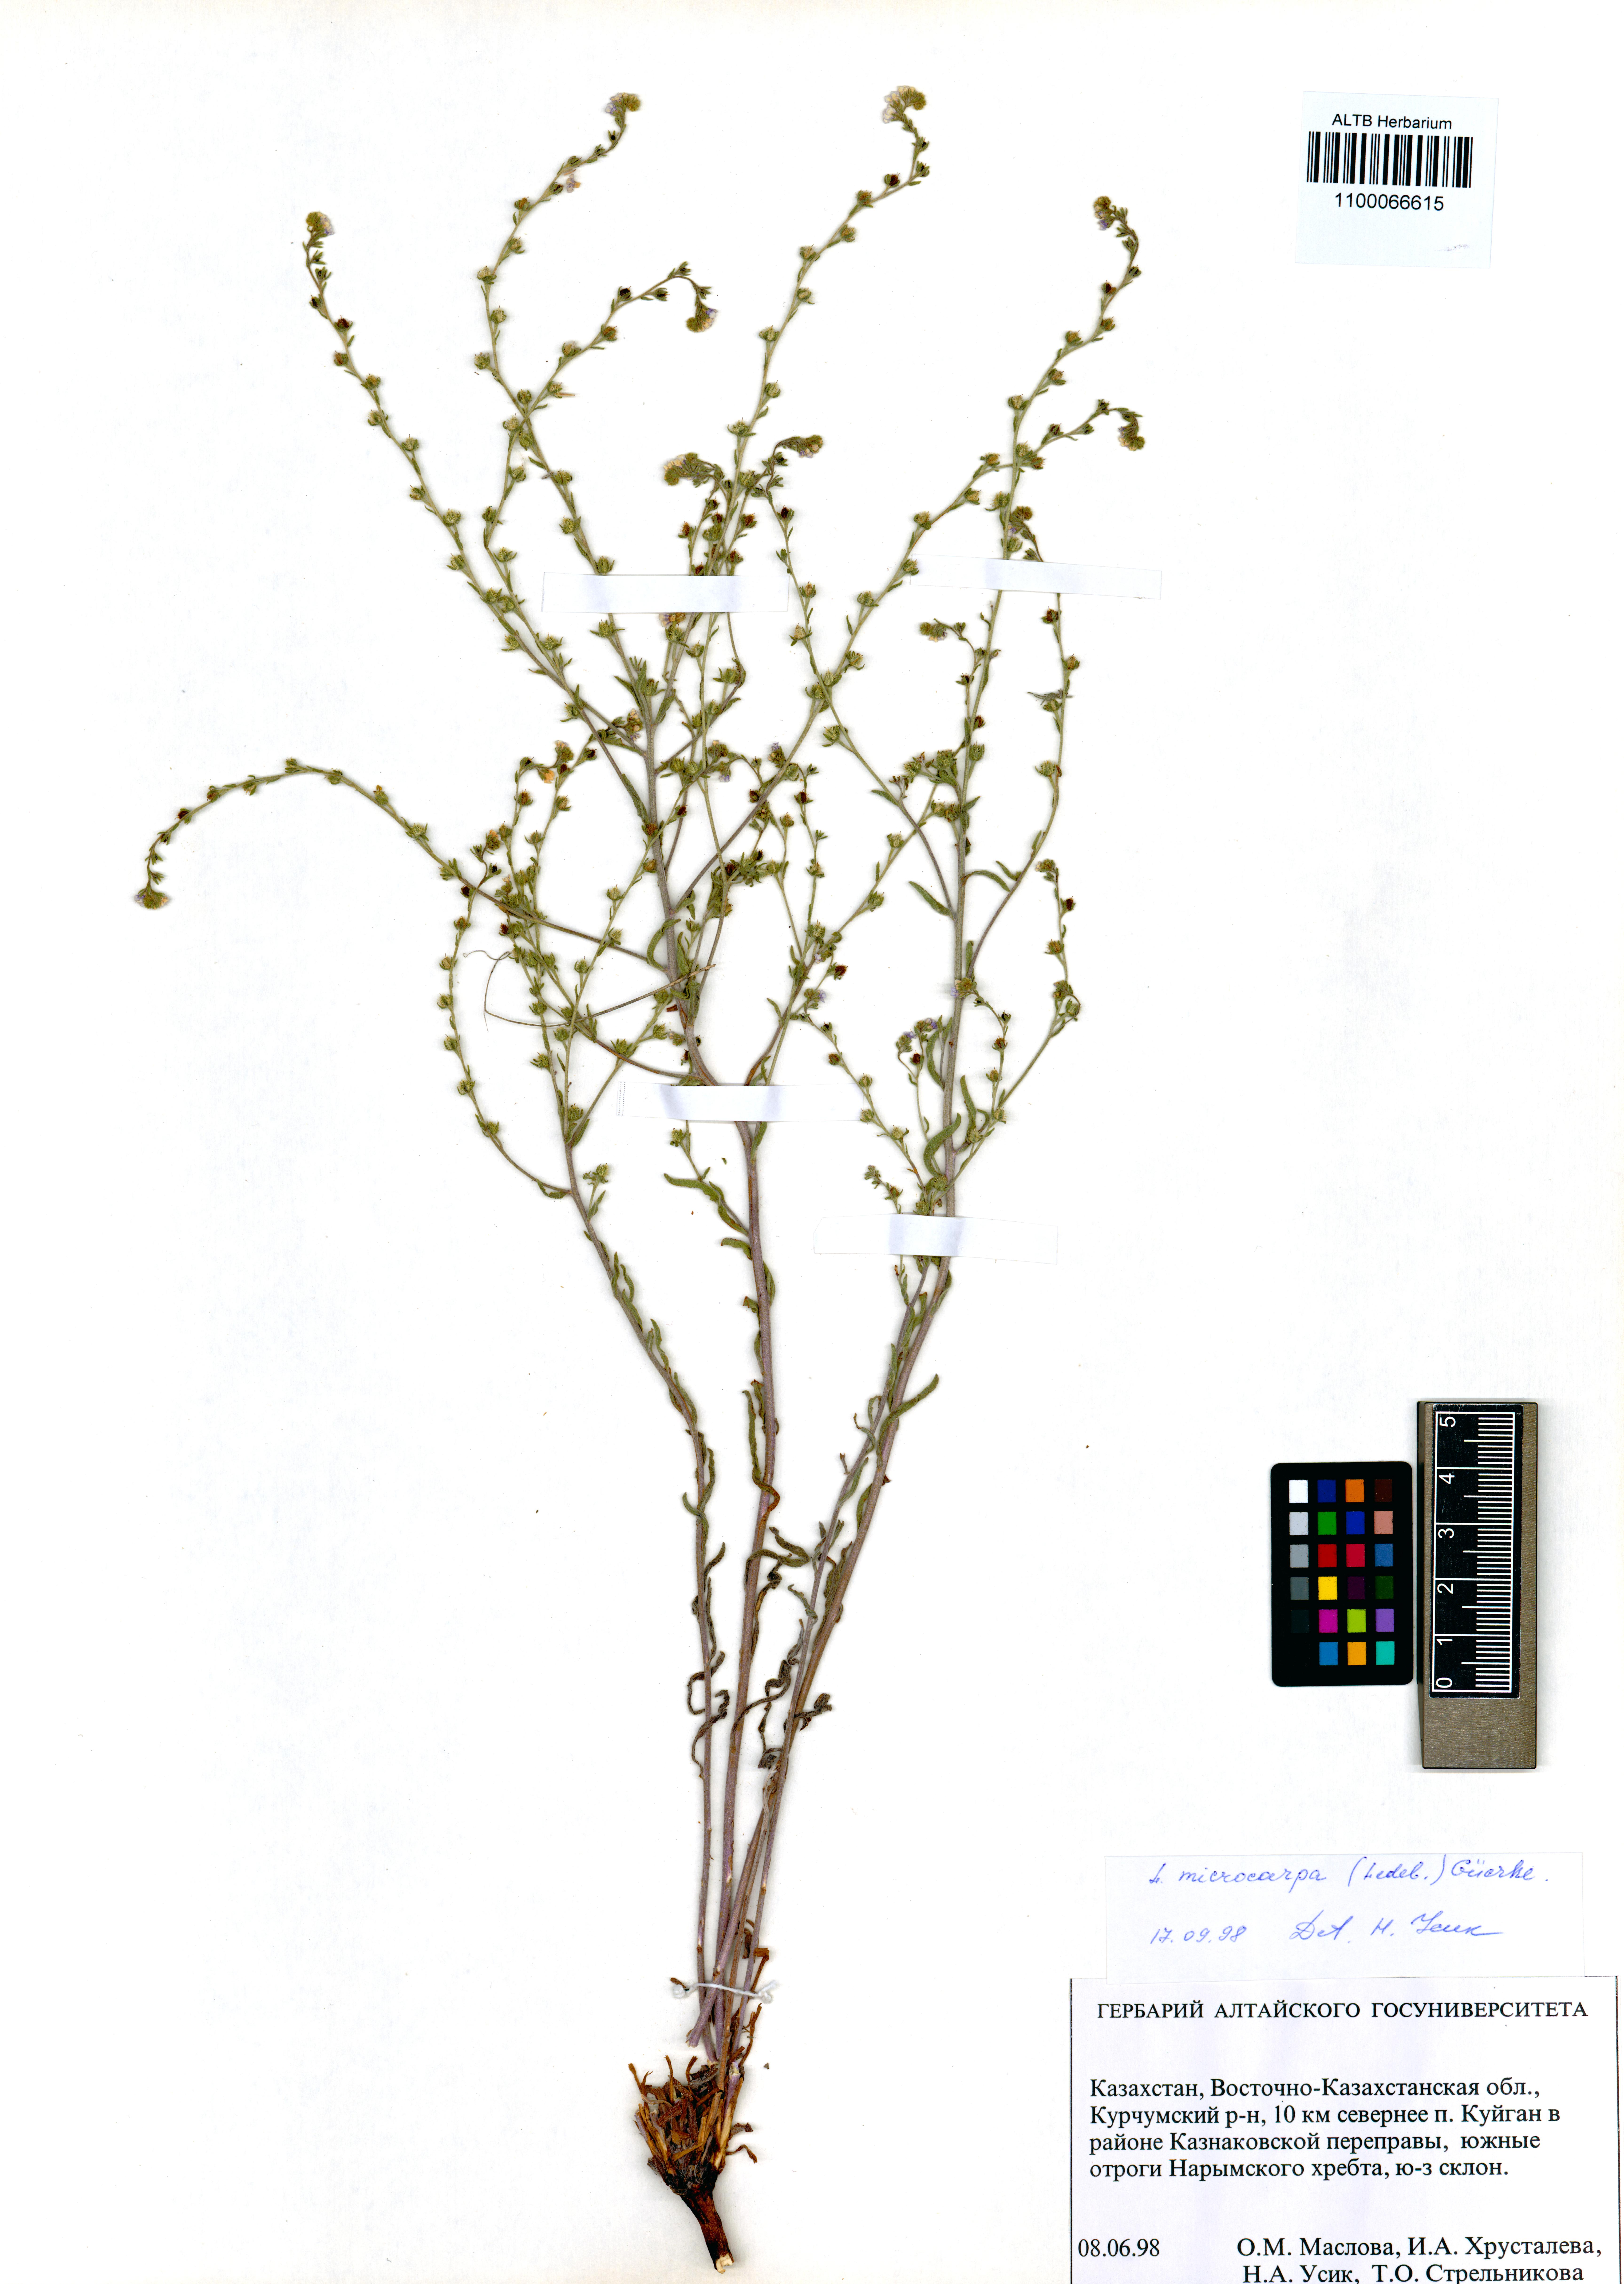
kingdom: Plantae
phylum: Tracheophyta
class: Magnoliopsida
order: Boraginales
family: Boraginaceae
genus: Lappula
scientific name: Lappula microcarpa
